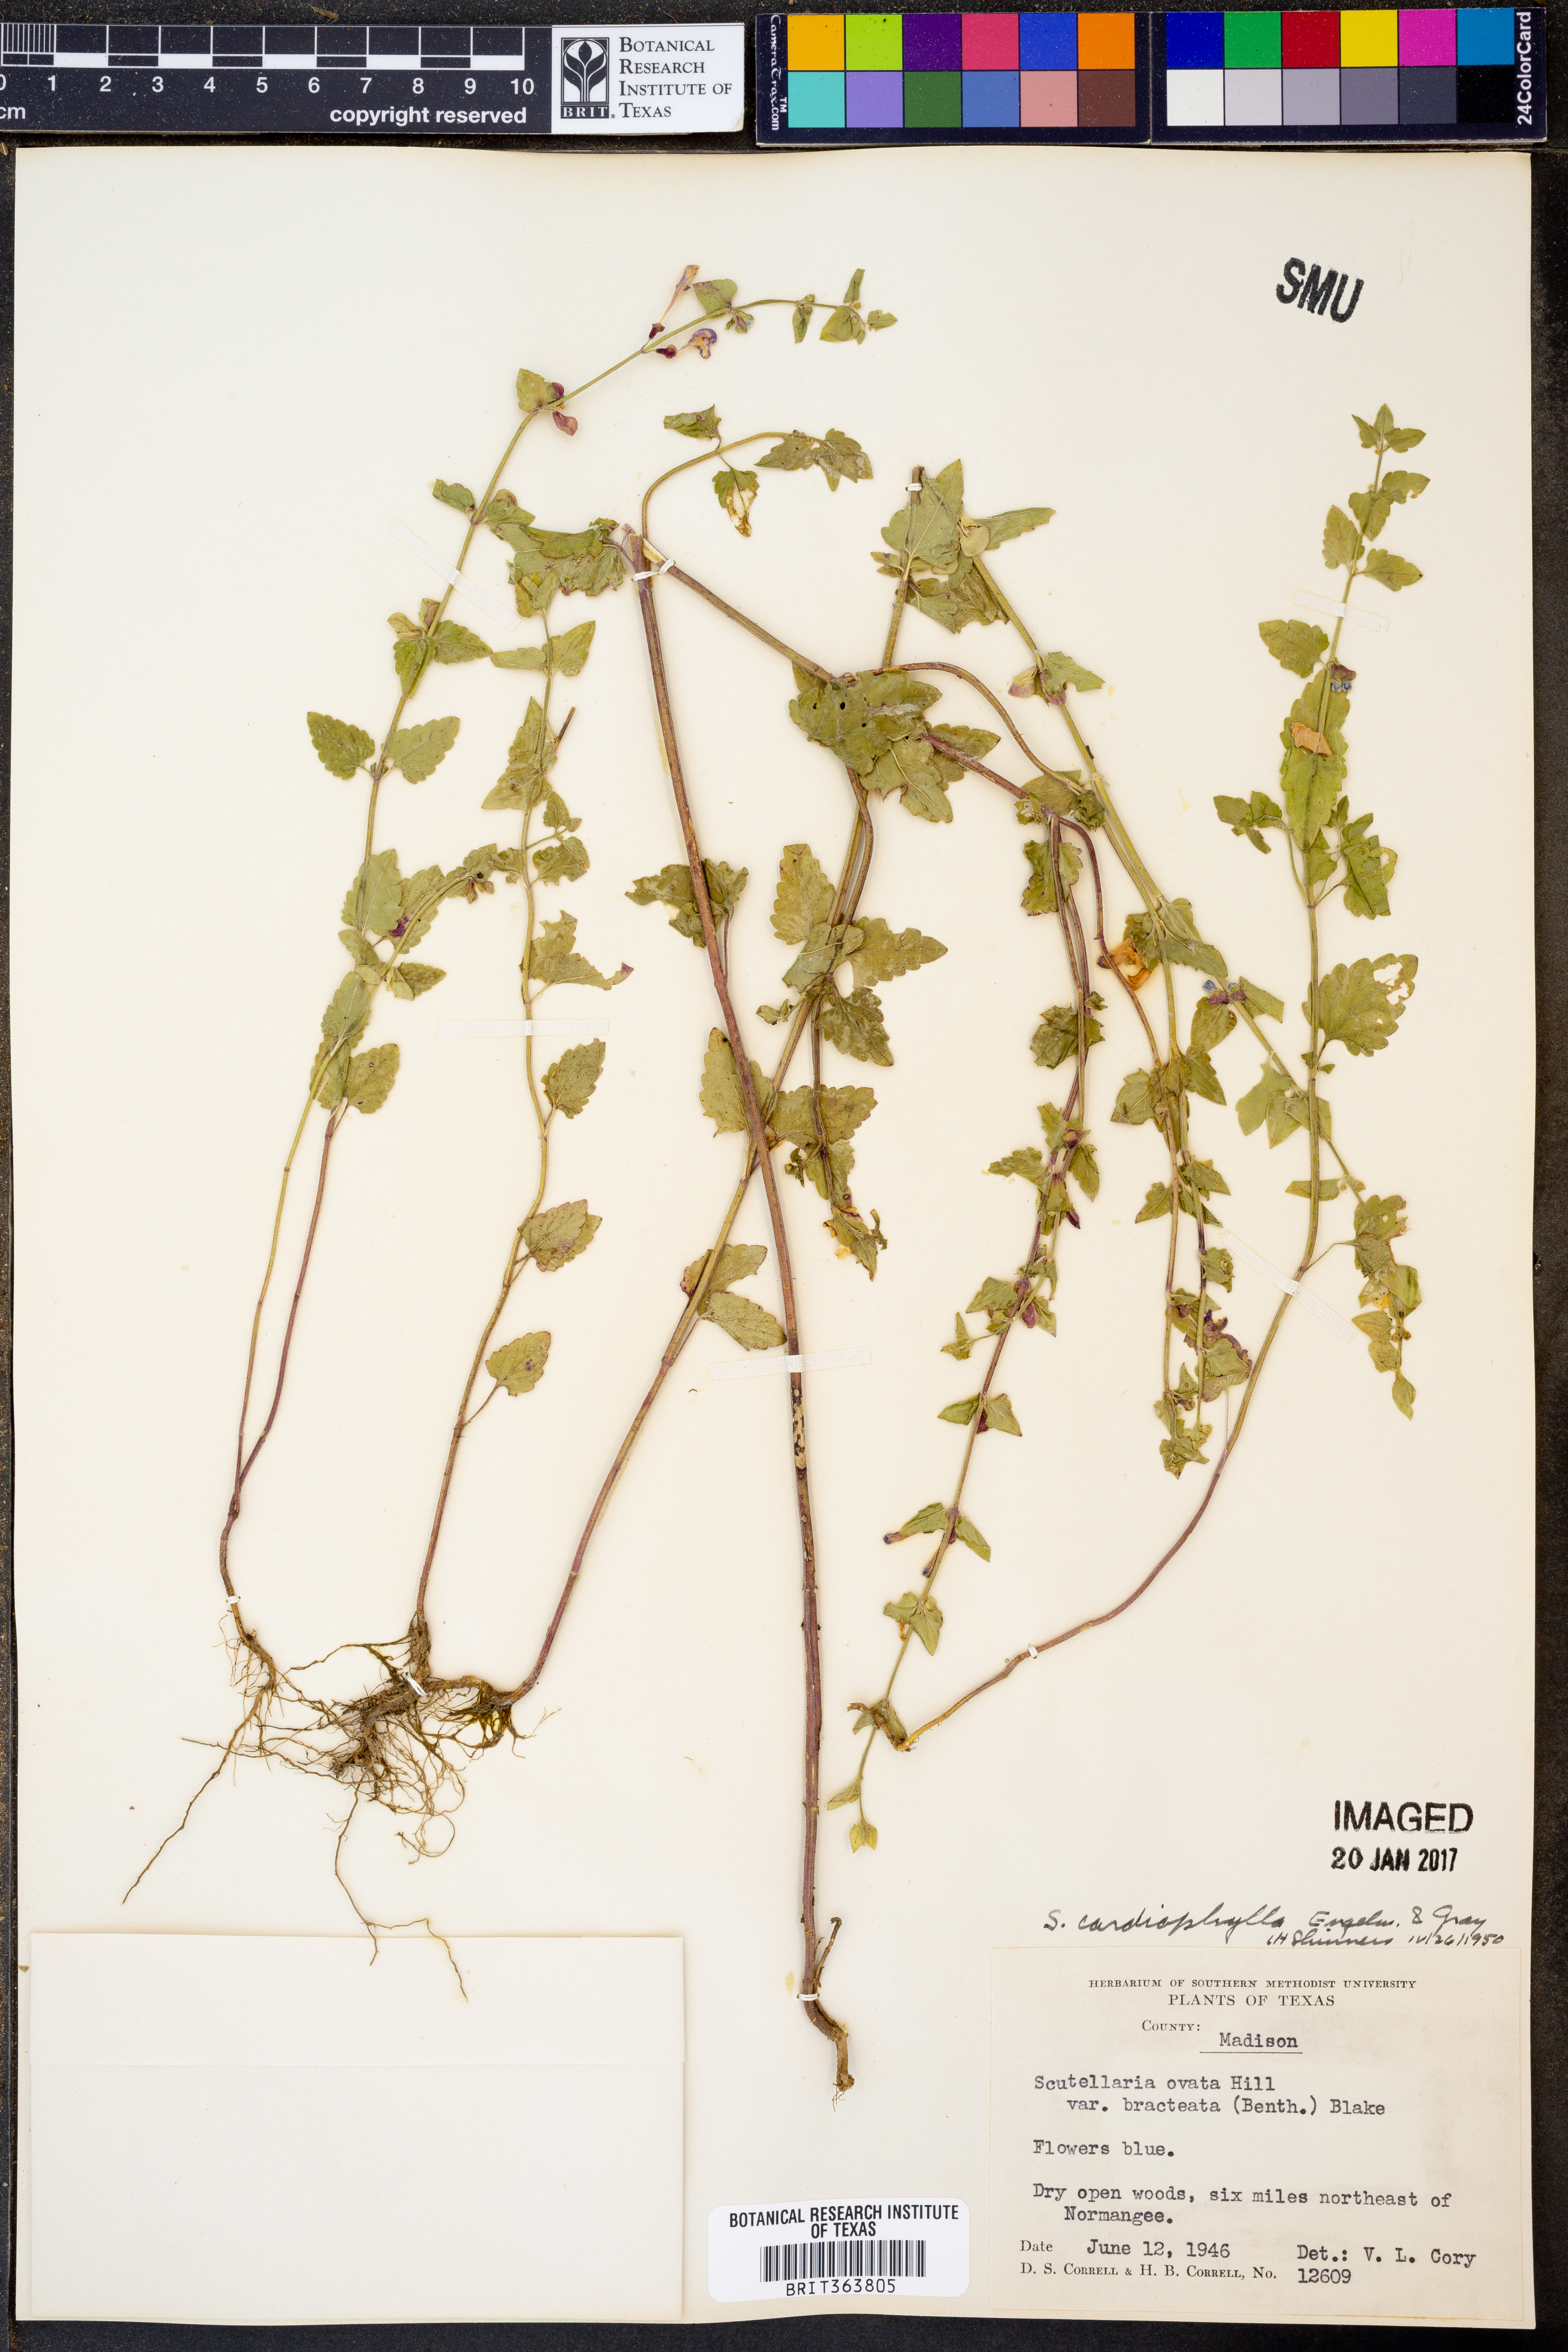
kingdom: Plantae
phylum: Tracheophyta
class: Magnoliopsida
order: Lamiales
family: Lamiaceae
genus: Scutellaria
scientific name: Scutellaria cardiophylla
